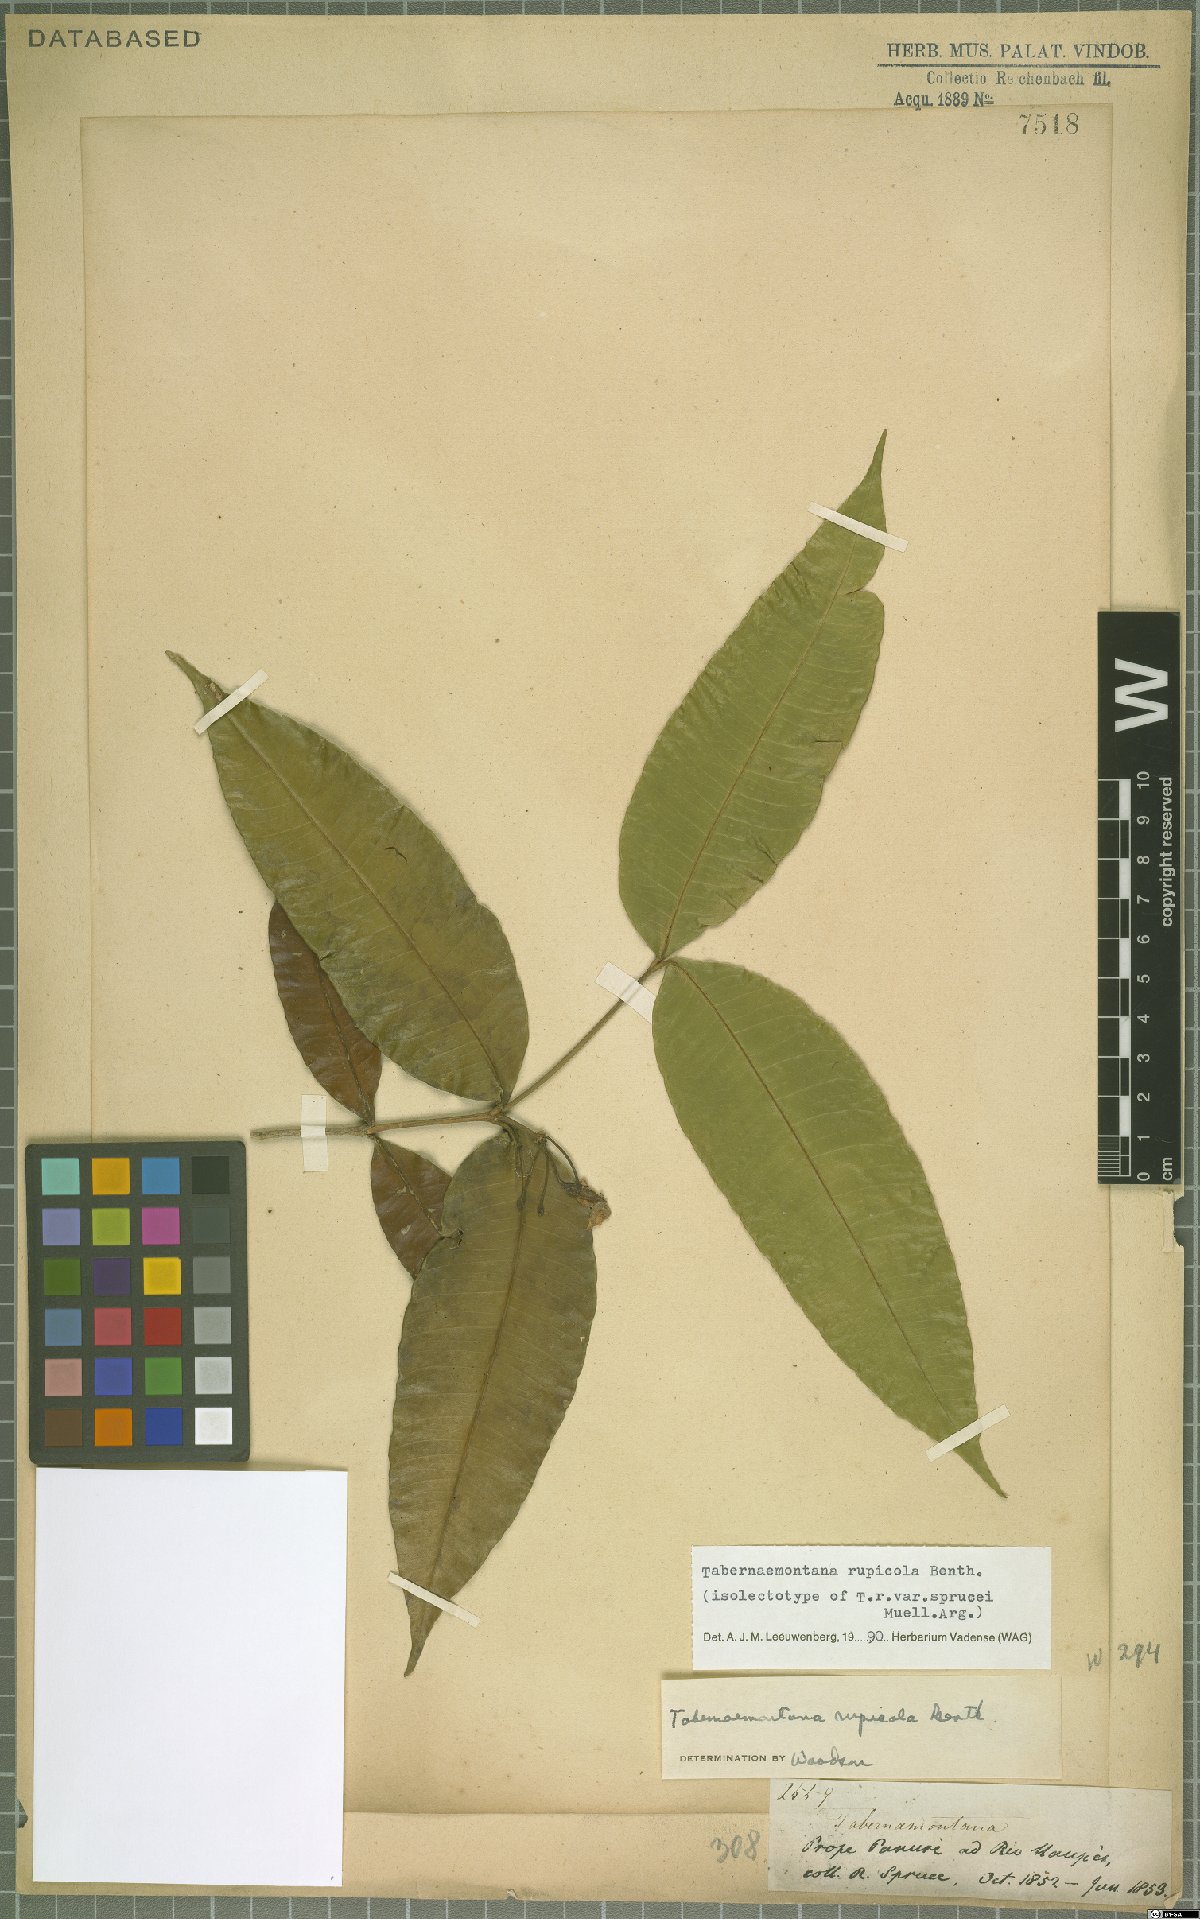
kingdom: Plantae
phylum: Tracheophyta
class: Magnoliopsida
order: Gentianales
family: Apocynaceae
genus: Tabernaemontana
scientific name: Tabernaemontana rupicola
